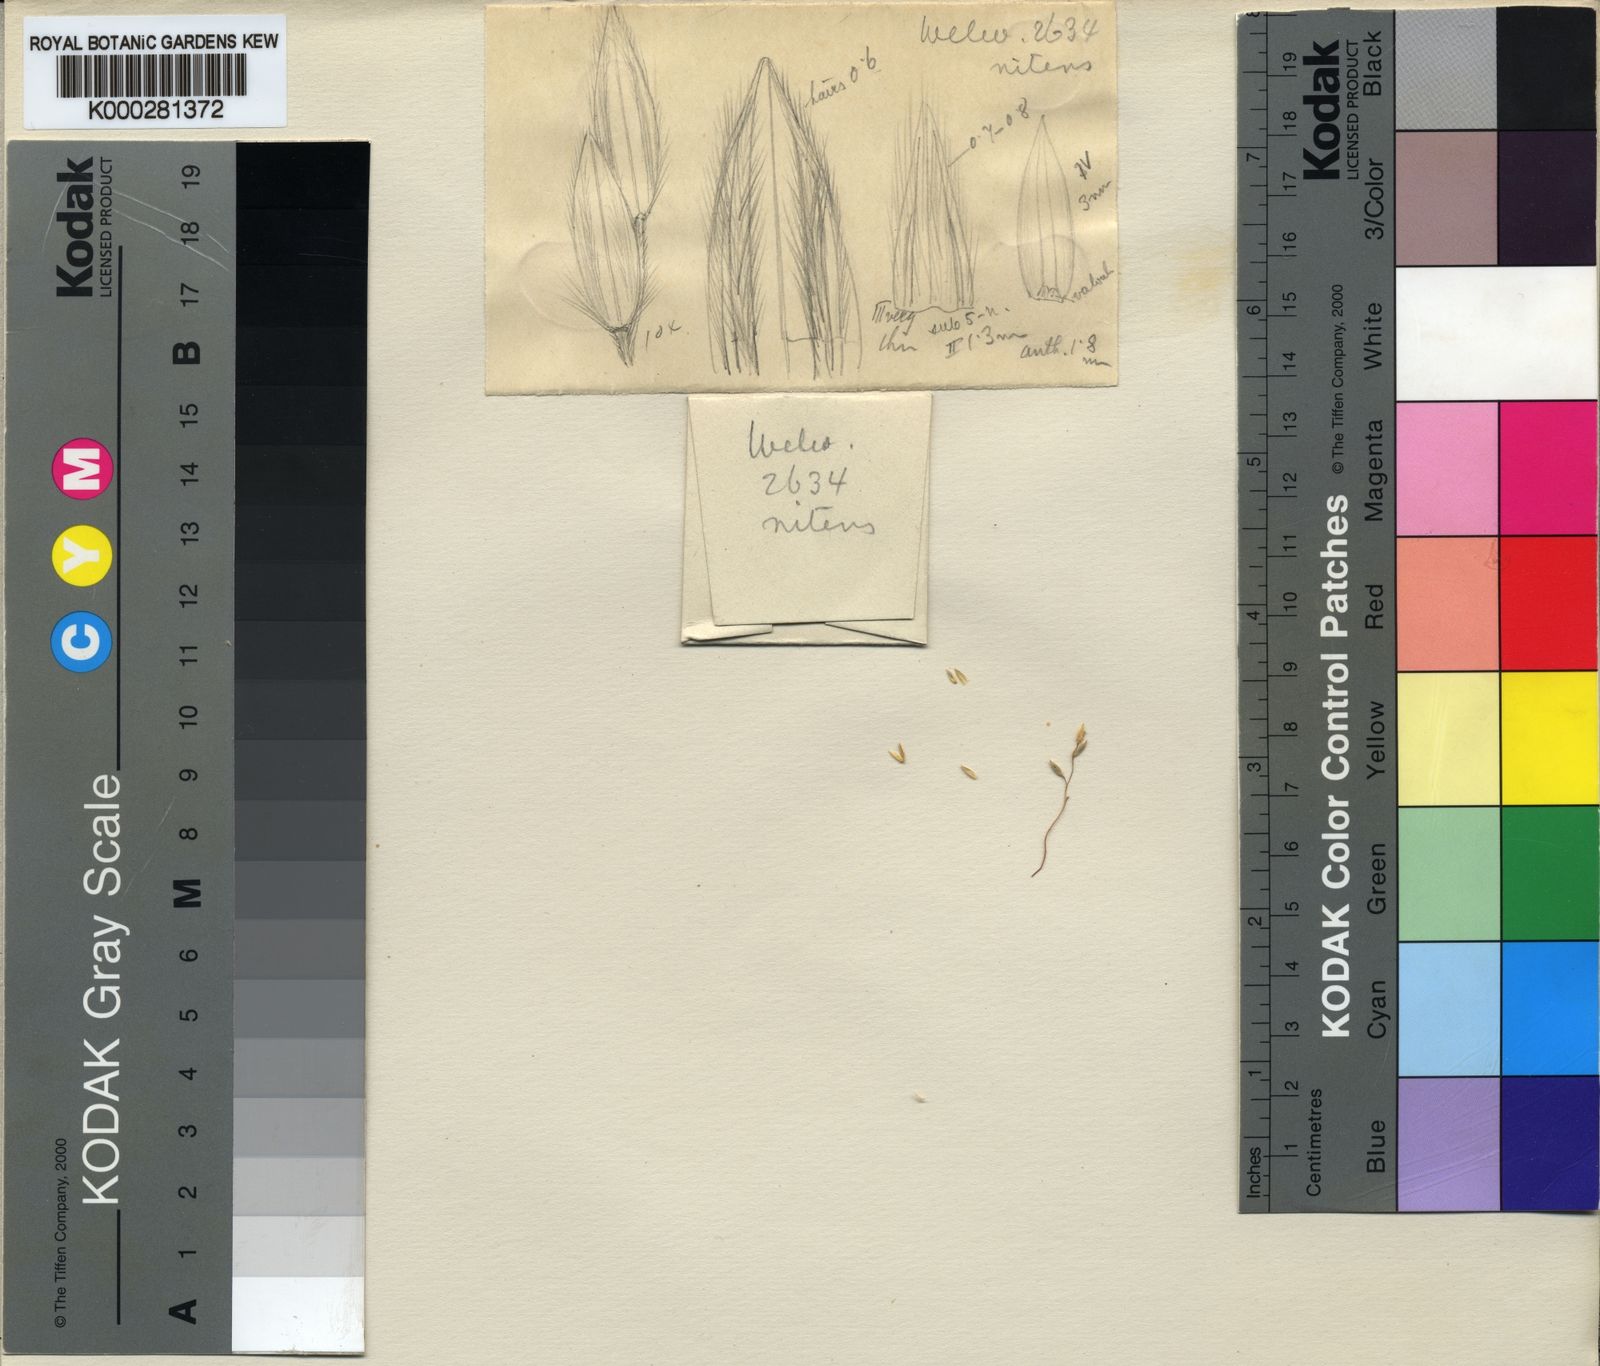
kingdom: Plantae
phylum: Tracheophyta
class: Liliopsida
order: Poales
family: Poaceae
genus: Digitaria
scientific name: Digitaria flaccida
